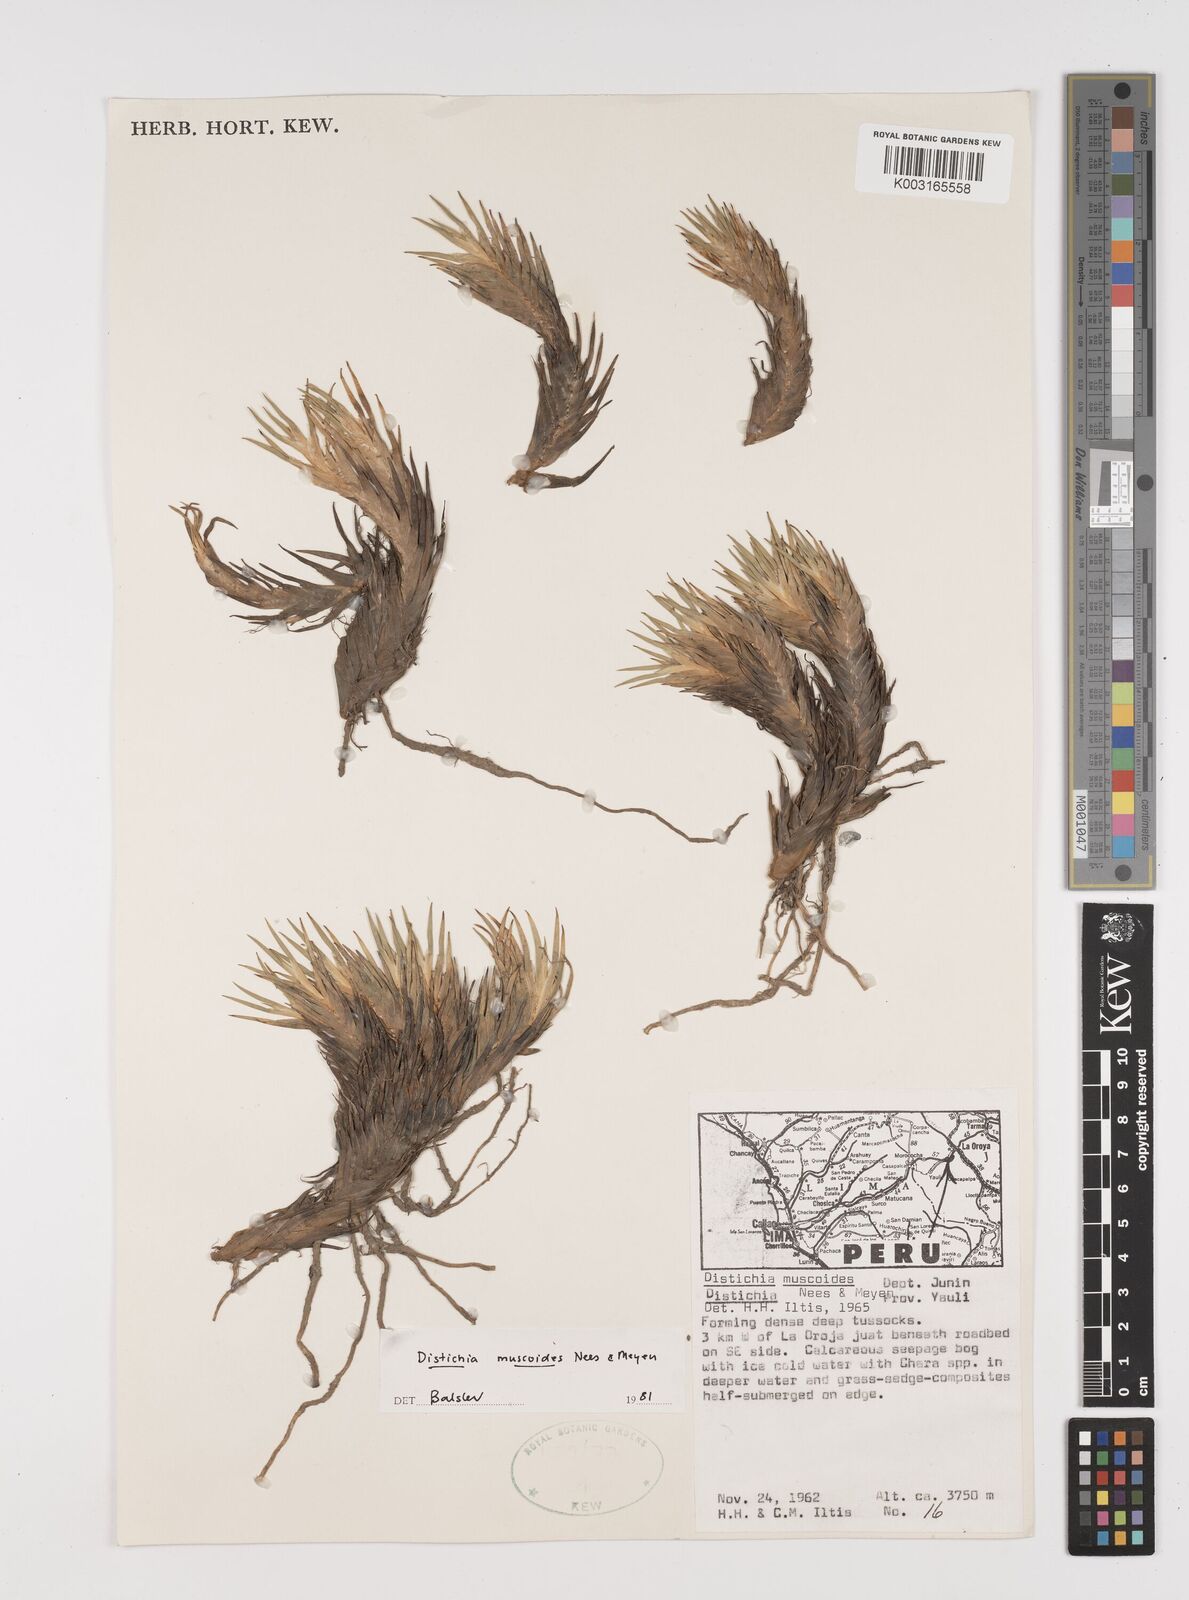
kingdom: Plantae
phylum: Tracheophyta
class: Liliopsida
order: Poales
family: Juncaceae
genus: Distichia
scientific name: Distichia muscoides
